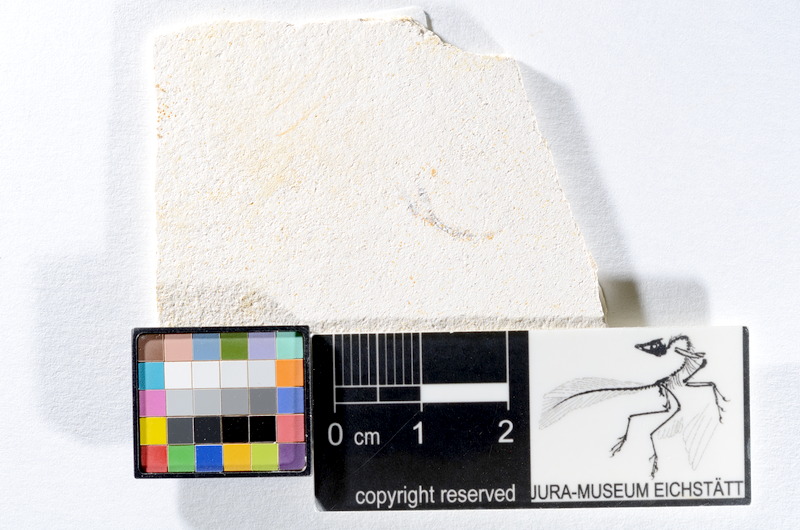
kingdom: Animalia
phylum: Chordata
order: Salmoniformes
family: Orthogonikleithridae
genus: Orthogonikleithrus
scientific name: Orthogonikleithrus hoelli
